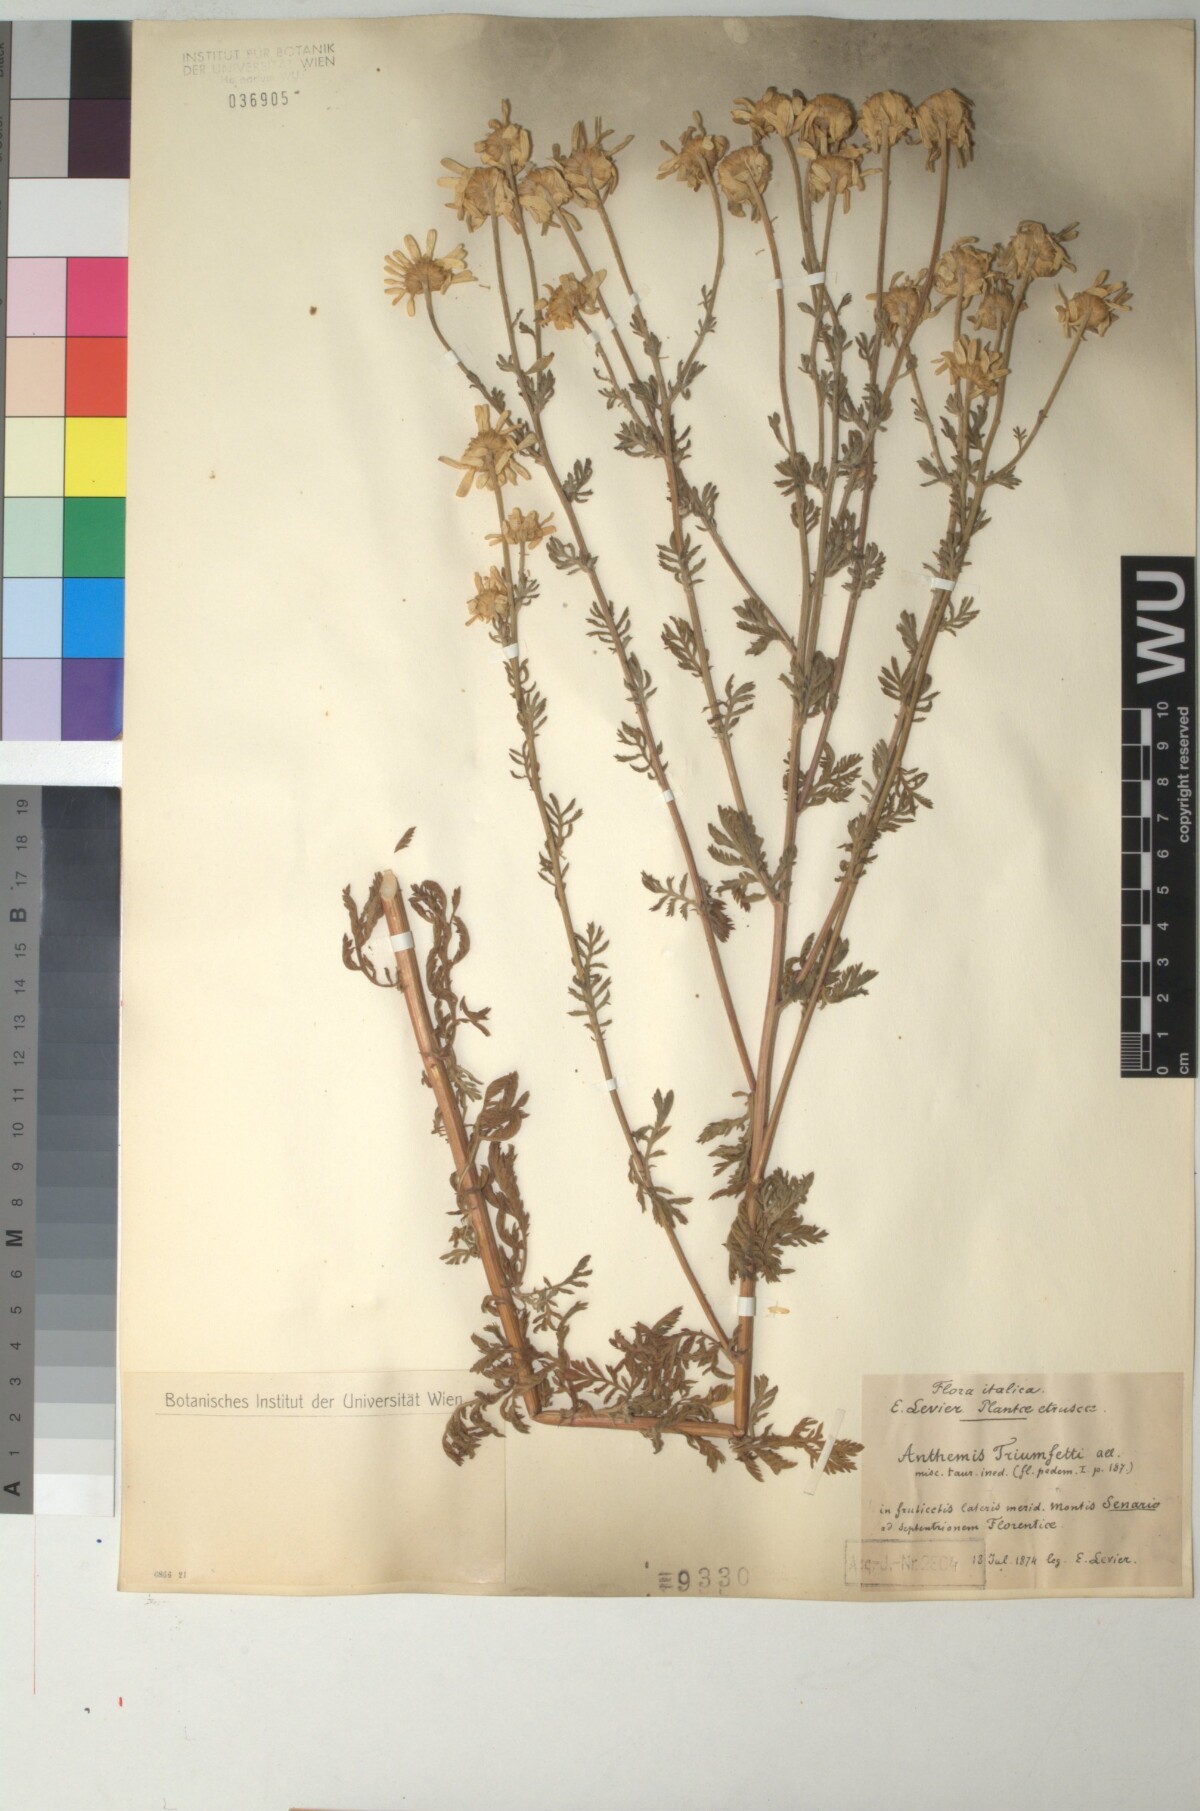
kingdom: Plantae
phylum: Tracheophyta
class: Magnoliopsida
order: Asterales
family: Asteraceae
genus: Cota
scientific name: Cota triumfetti
